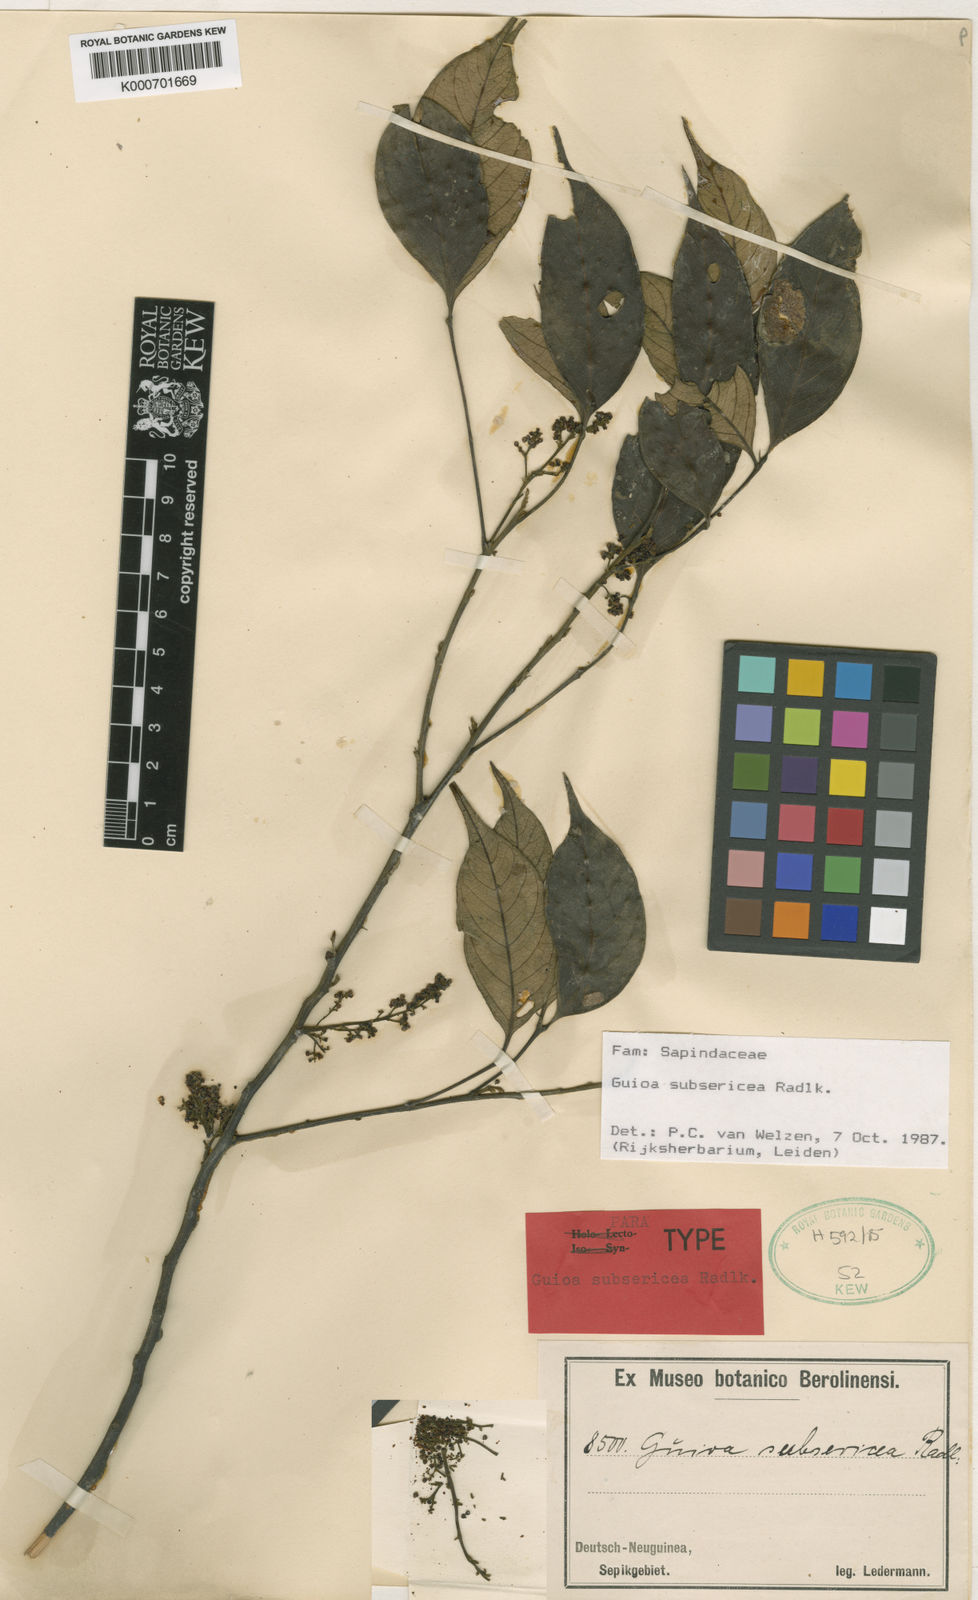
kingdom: Plantae
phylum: Tracheophyta
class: Magnoliopsida
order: Sapindales
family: Sapindaceae
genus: Guioa
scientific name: Guioa subsericea
